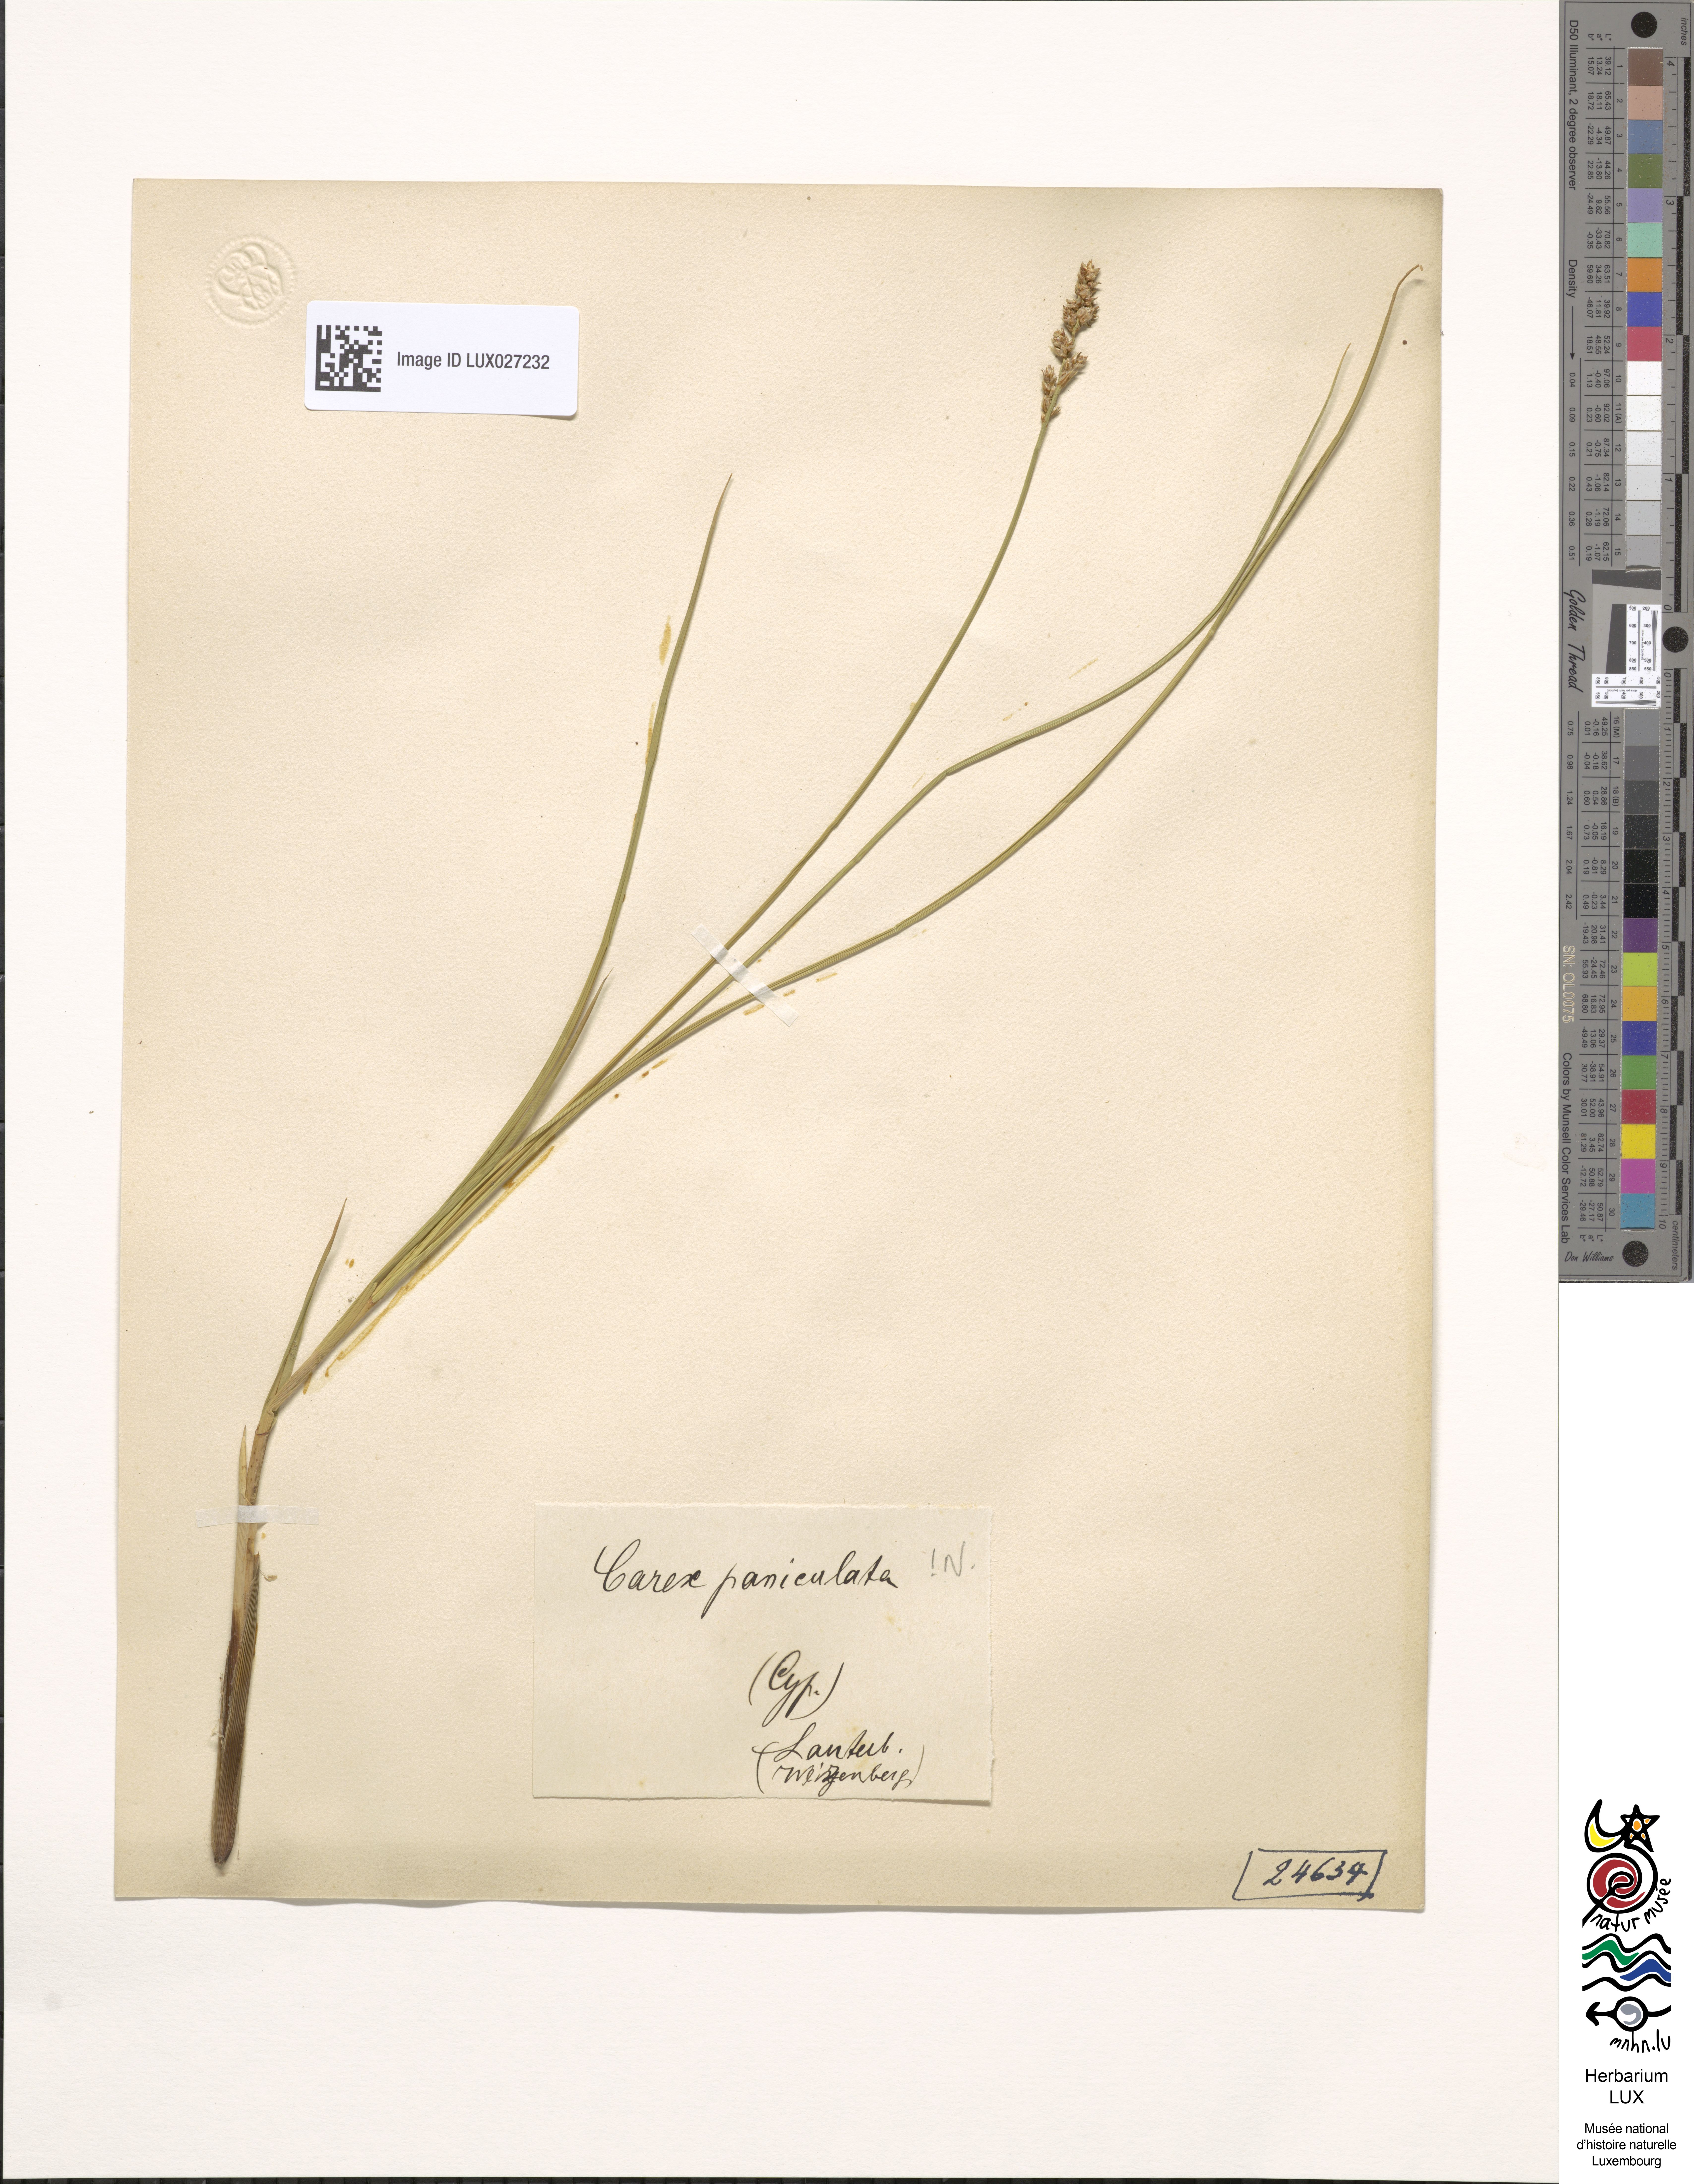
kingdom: Plantae
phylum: Tracheophyta
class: Liliopsida
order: Poales
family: Cyperaceae
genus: Carex
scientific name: Carex paniculata
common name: Greater tussock-sedge
